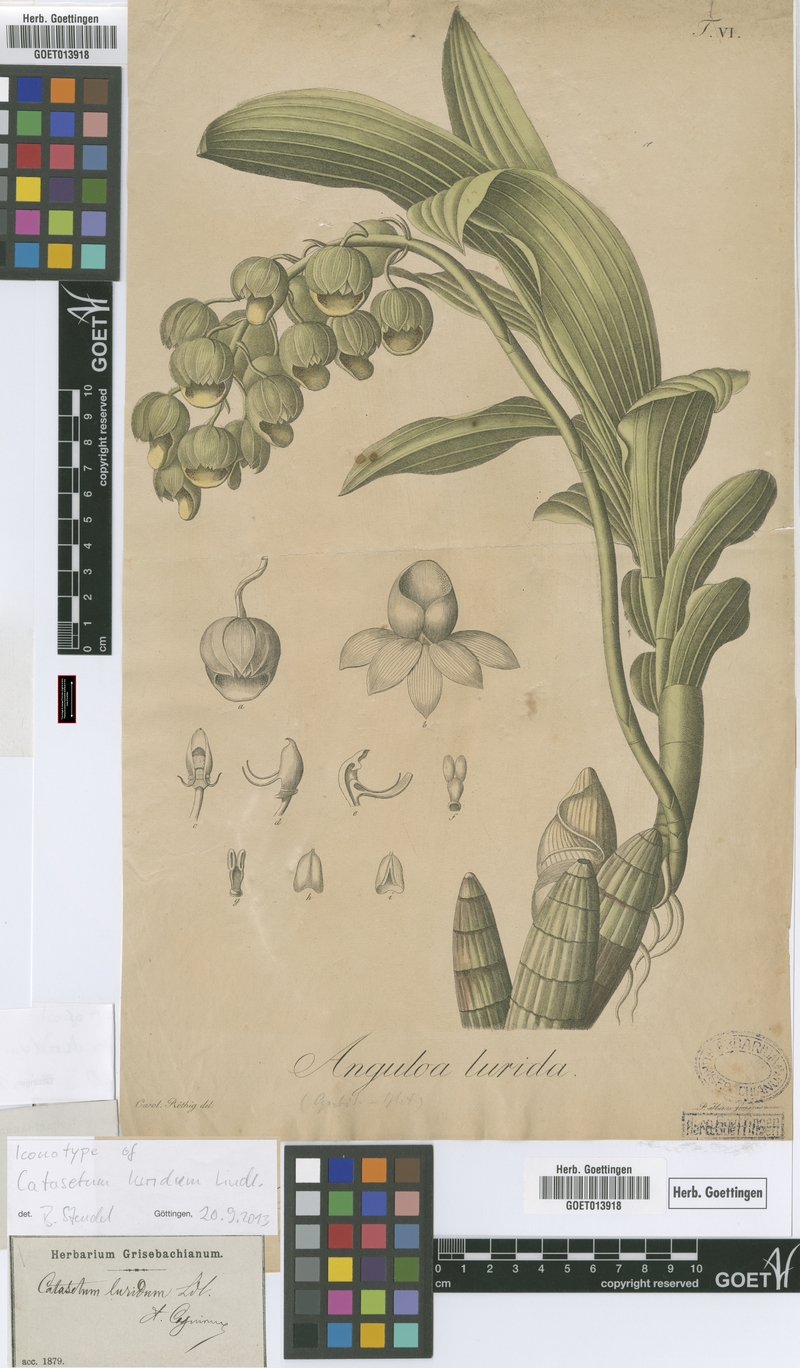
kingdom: Plantae
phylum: Tracheophyta
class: Liliopsida
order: Asparagales
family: Orchidaceae
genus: Catasetum
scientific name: Catasetum luridum
